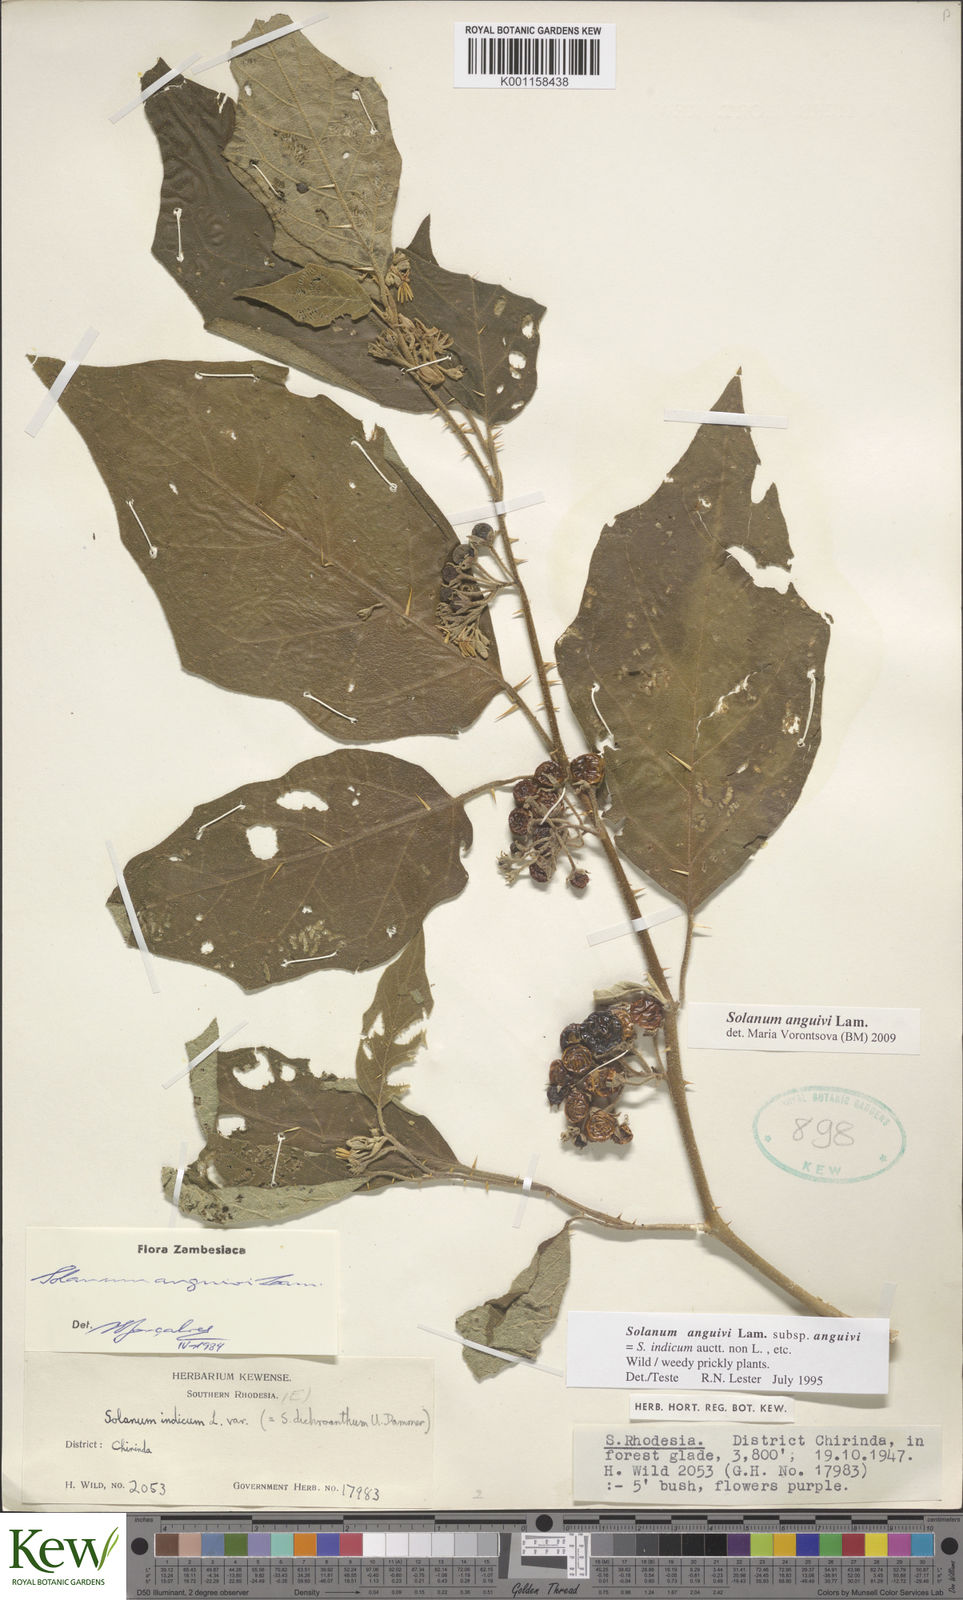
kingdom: Plantae
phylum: Tracheophyta
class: Magnoliopsida
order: Solanales
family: Solanaceae
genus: Solanum
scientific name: Solanum anguivi
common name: Forest bitterberry
